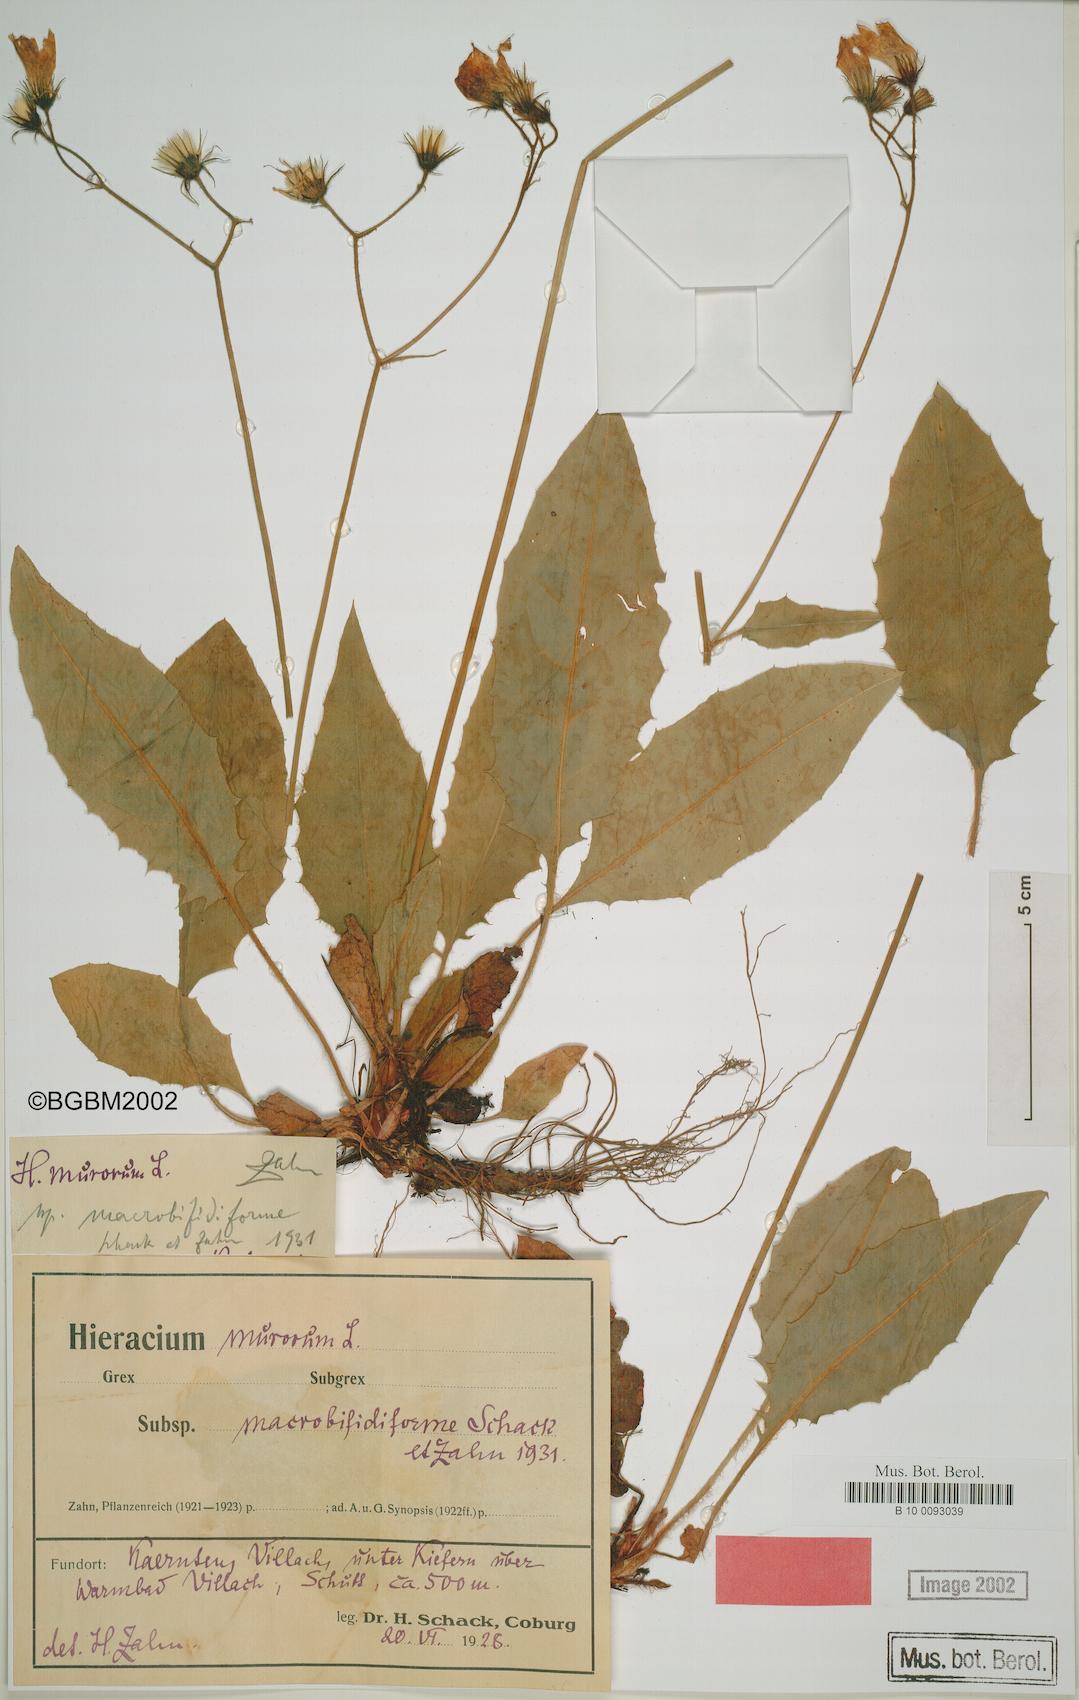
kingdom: Plantae
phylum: Tracheophyta
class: Magnoliopsida
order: Asterales
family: Asteraceae
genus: Hieracium
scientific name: Hieracium murorum
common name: Wall hawkweed
